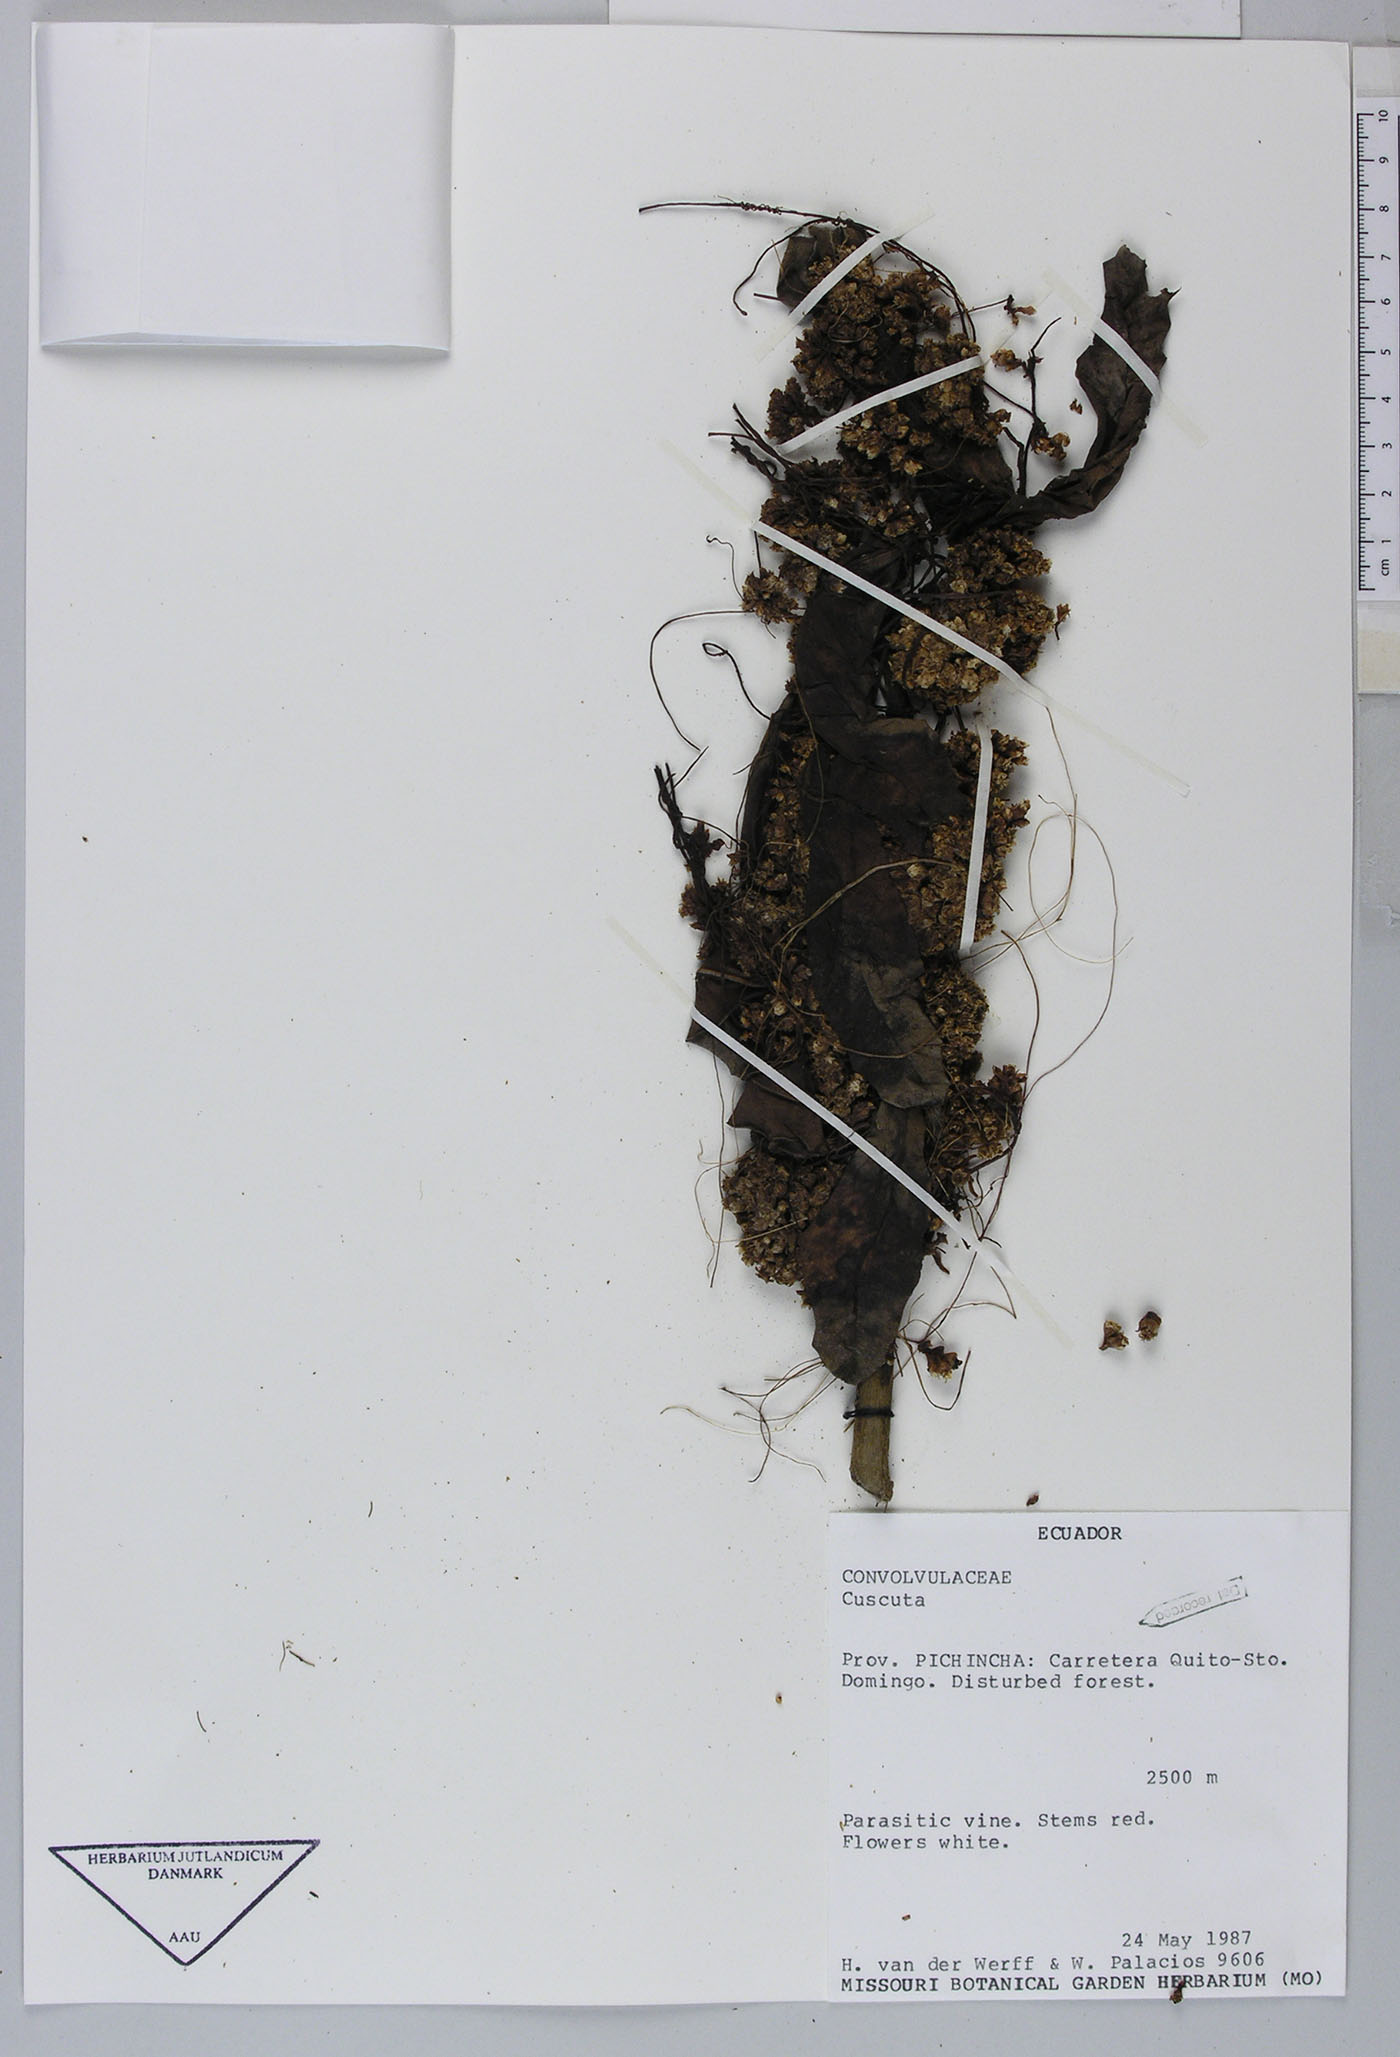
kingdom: Plantae
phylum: Tracheophyta
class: Magnoliopsida
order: Solanales
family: Convolvulaceae
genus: Cuscuta
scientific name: Cuscuta foetida
